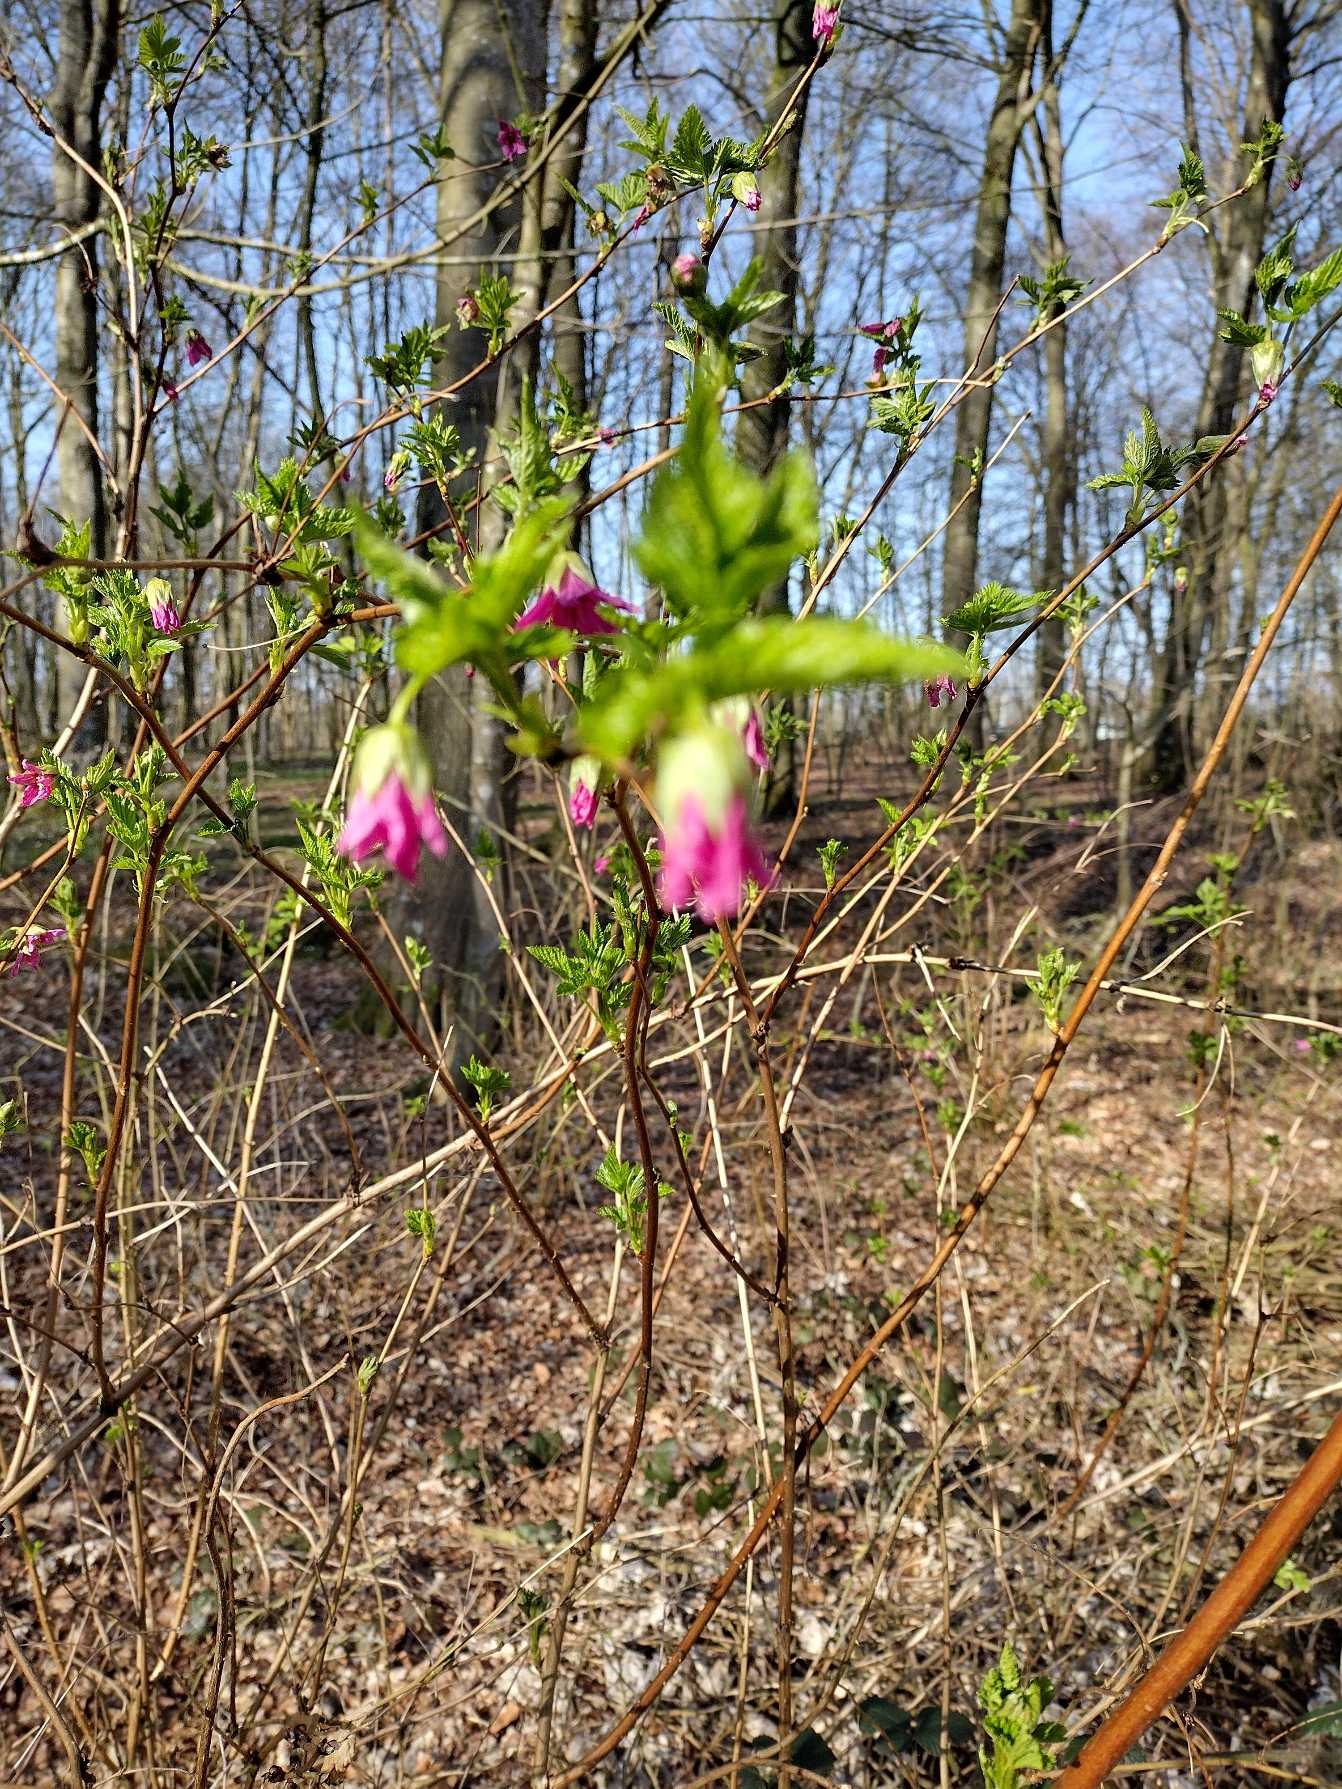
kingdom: Plantae
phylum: Tracheophyta
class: Magnoliopsida
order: Rosales
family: Rosaceae
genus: Rubus
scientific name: Rubus spectabilis
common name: Laksebær
